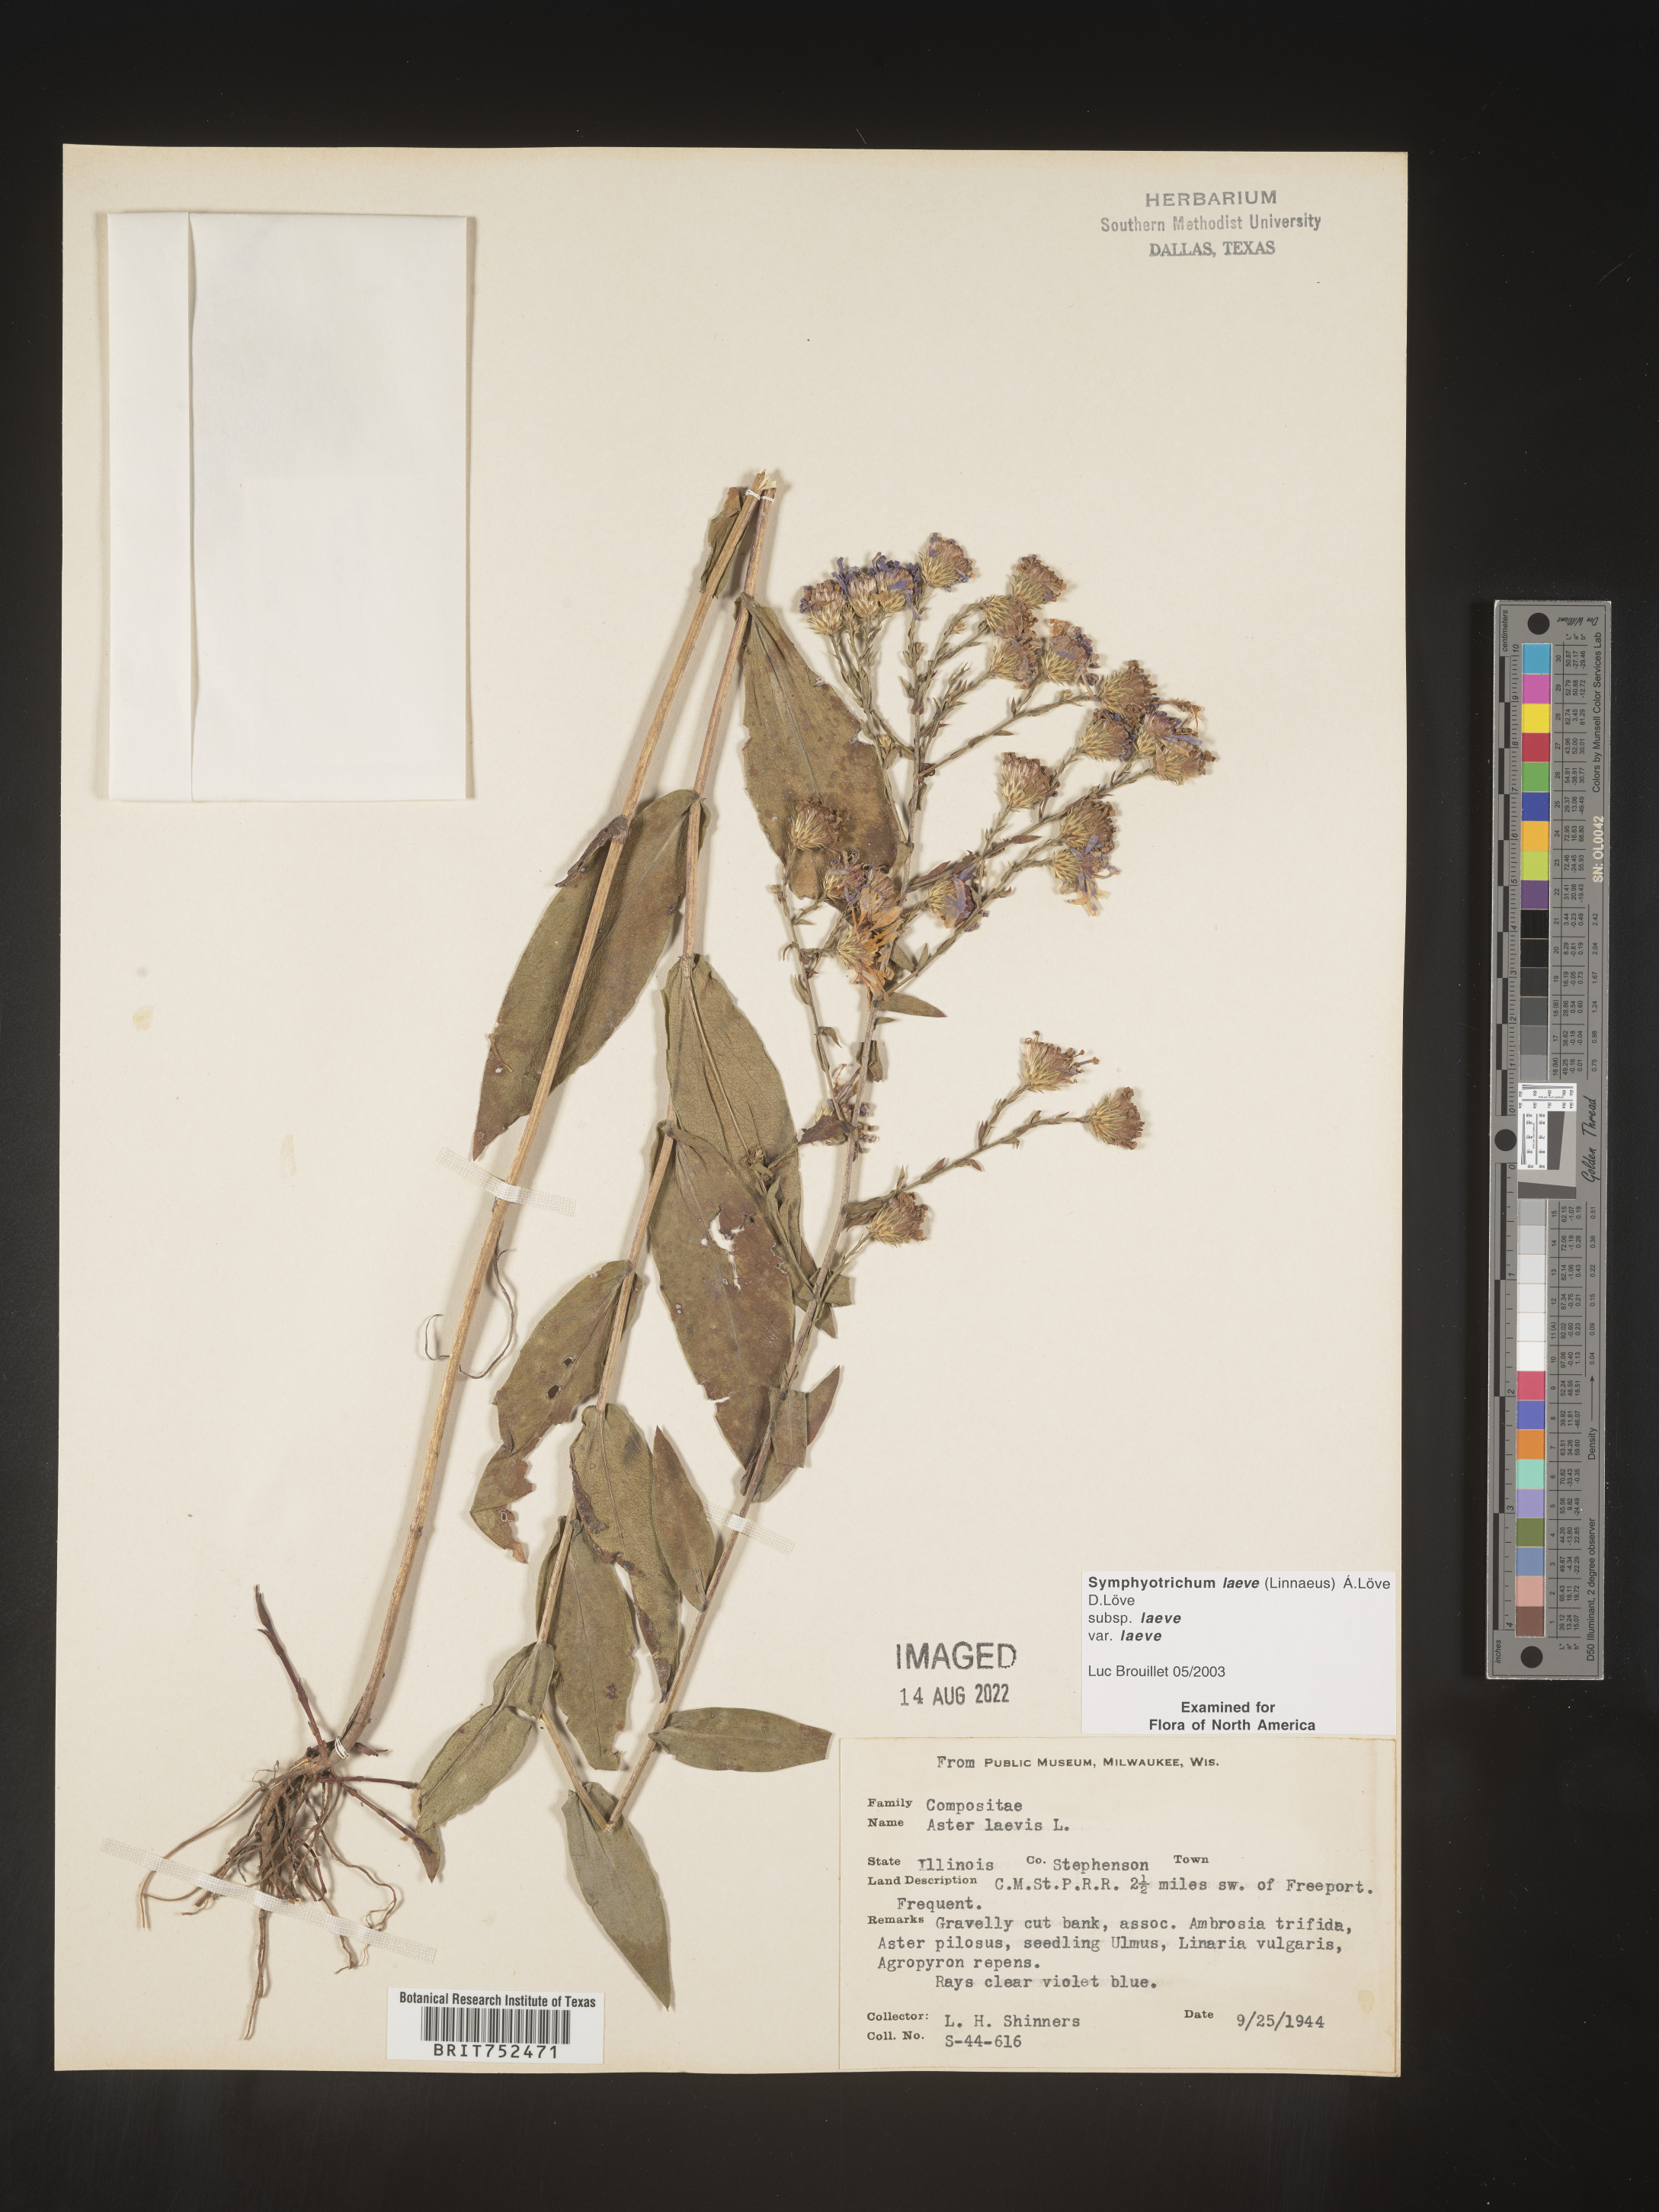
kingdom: Plantae
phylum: Tracheophyta
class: Magnoliopsida
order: Asterales
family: Asteraceae
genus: Symphyotrichum
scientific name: Symphyotrichum laeve
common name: Glaucous aster
